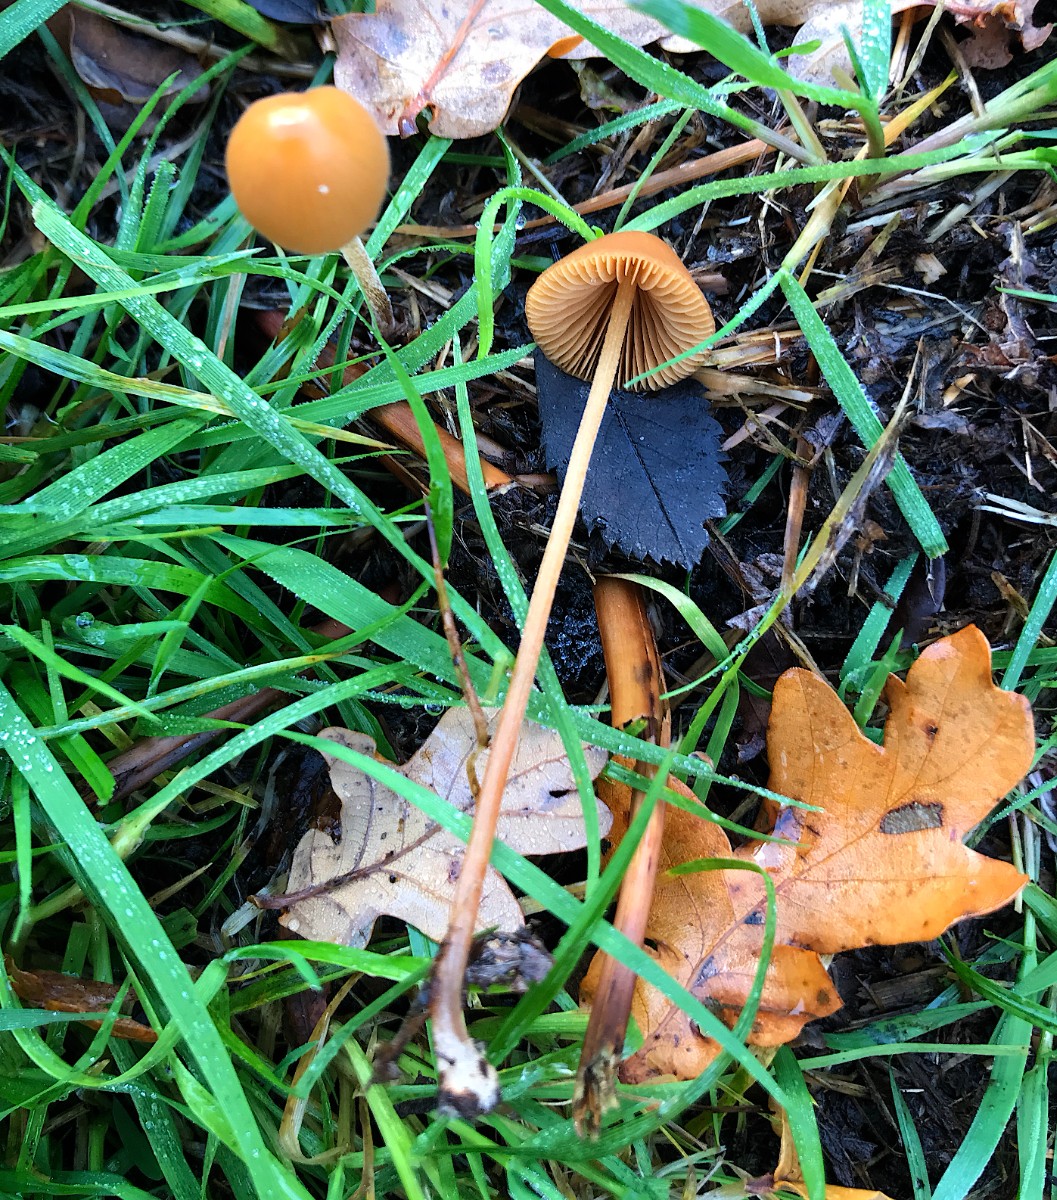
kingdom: Fungi
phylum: Basidiomycota
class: Agaricomycetes
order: Agaricales
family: Bolbitiaceae
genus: Conocybe
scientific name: Conocybe
